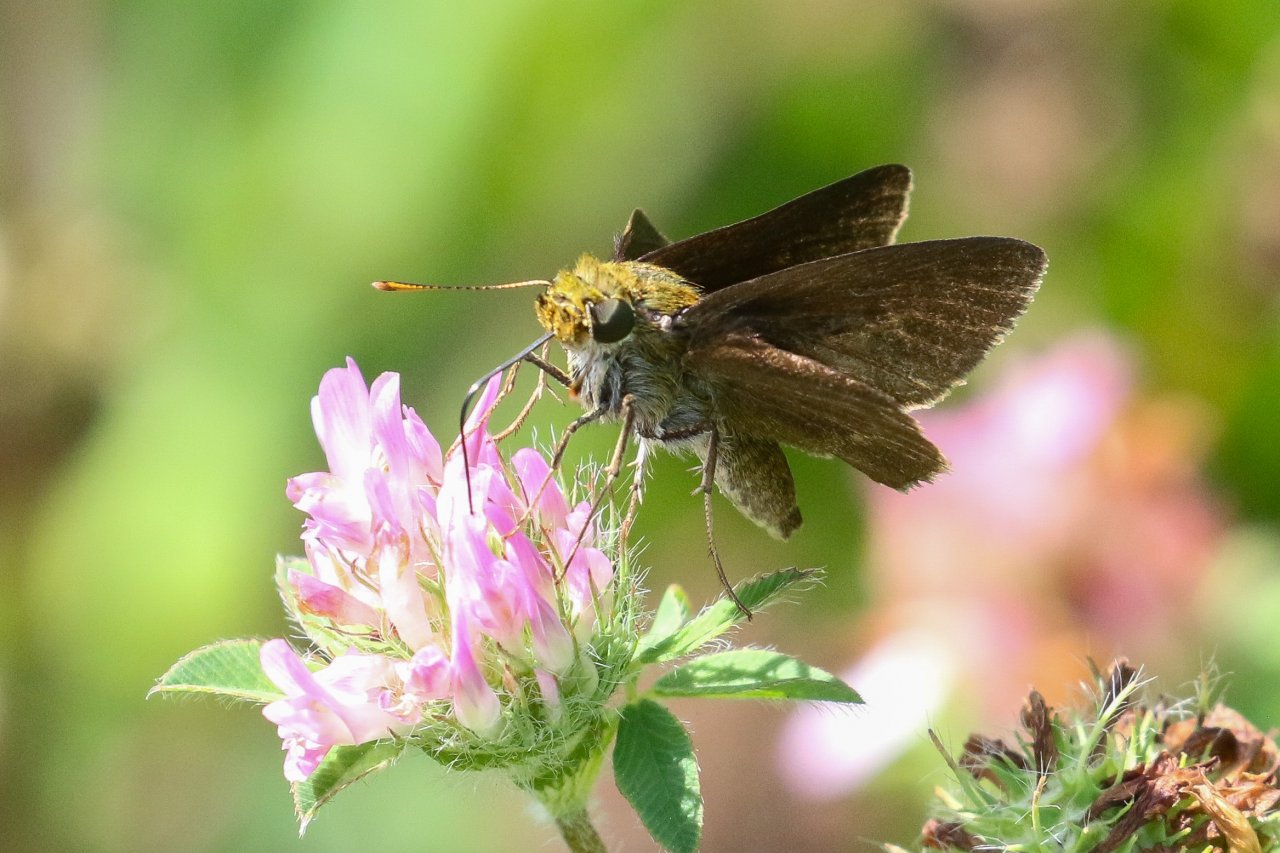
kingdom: Animalia
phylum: Arthropoda
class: Insecta
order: Lepidoptera
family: Hesperiidae
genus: Euphyes
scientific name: Euphyes vestris
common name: Dun Skipper
